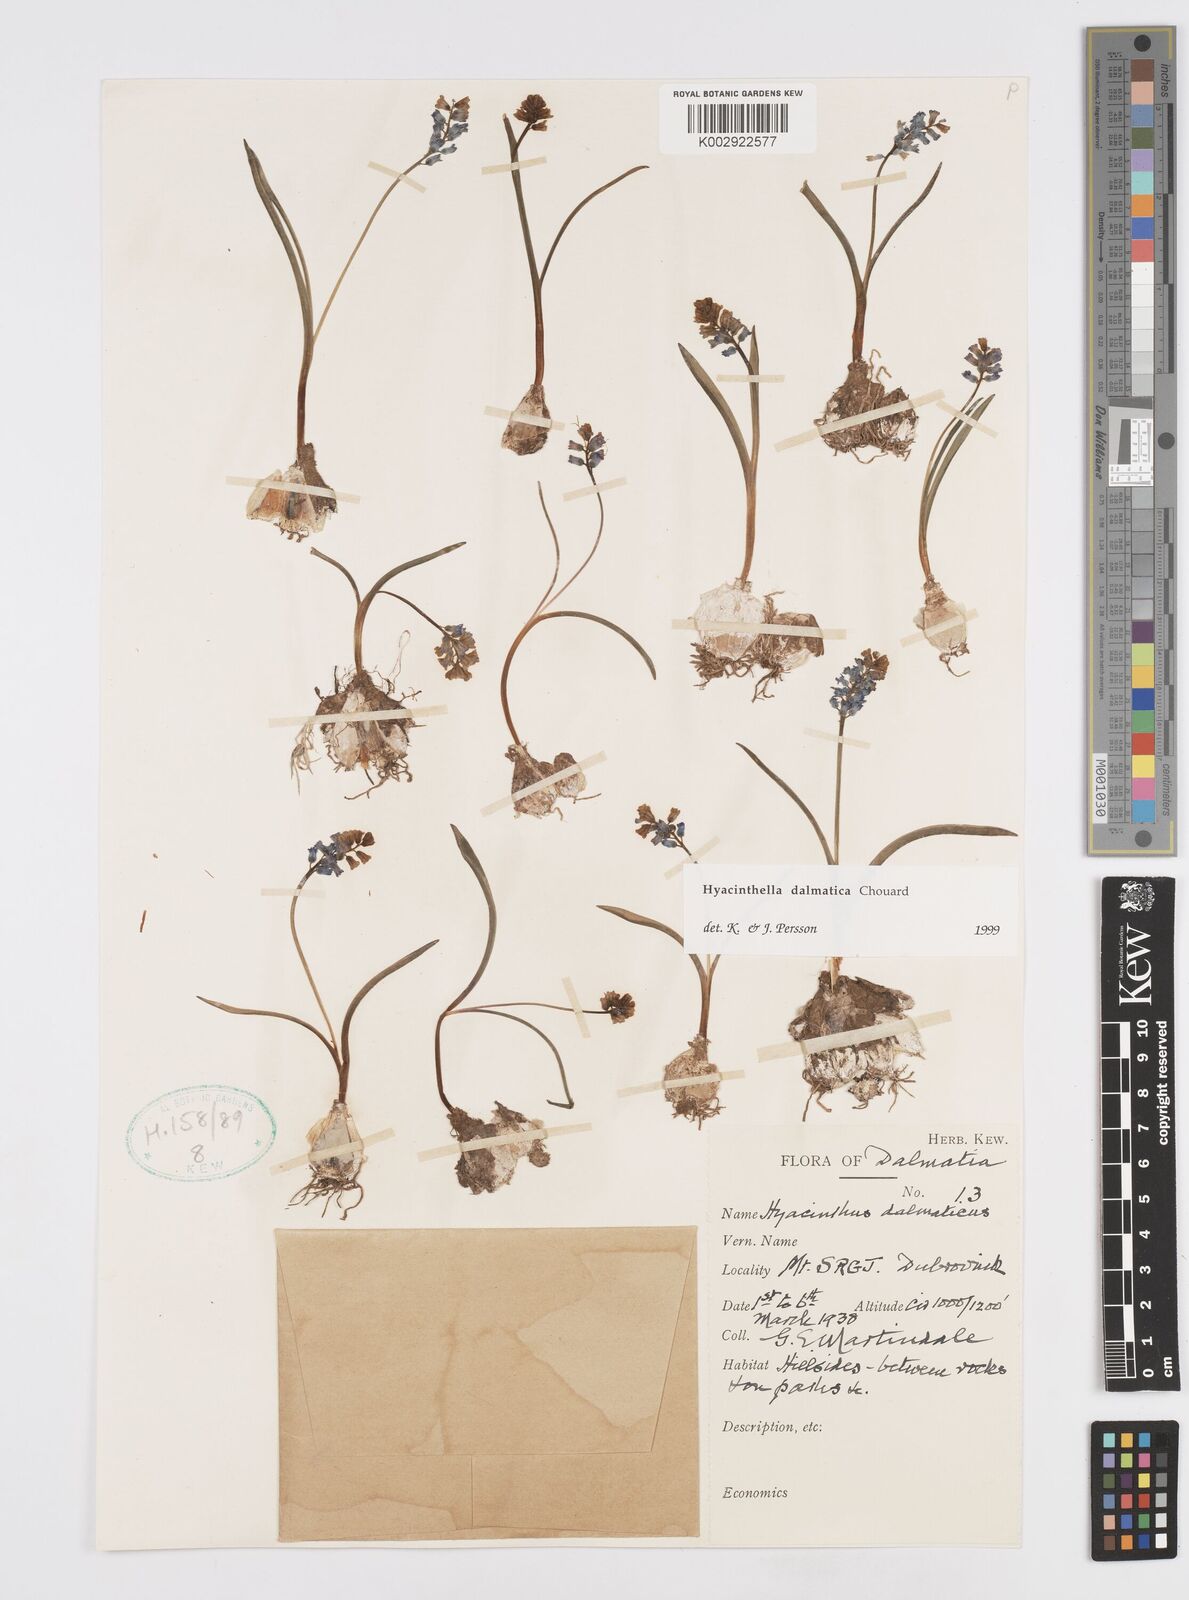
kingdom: Plantae
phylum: Tracheophyta
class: Liliopsida
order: Asparagales
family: Asparagaceae
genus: Hyacinthella
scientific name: Hyacinthella leucophaea
